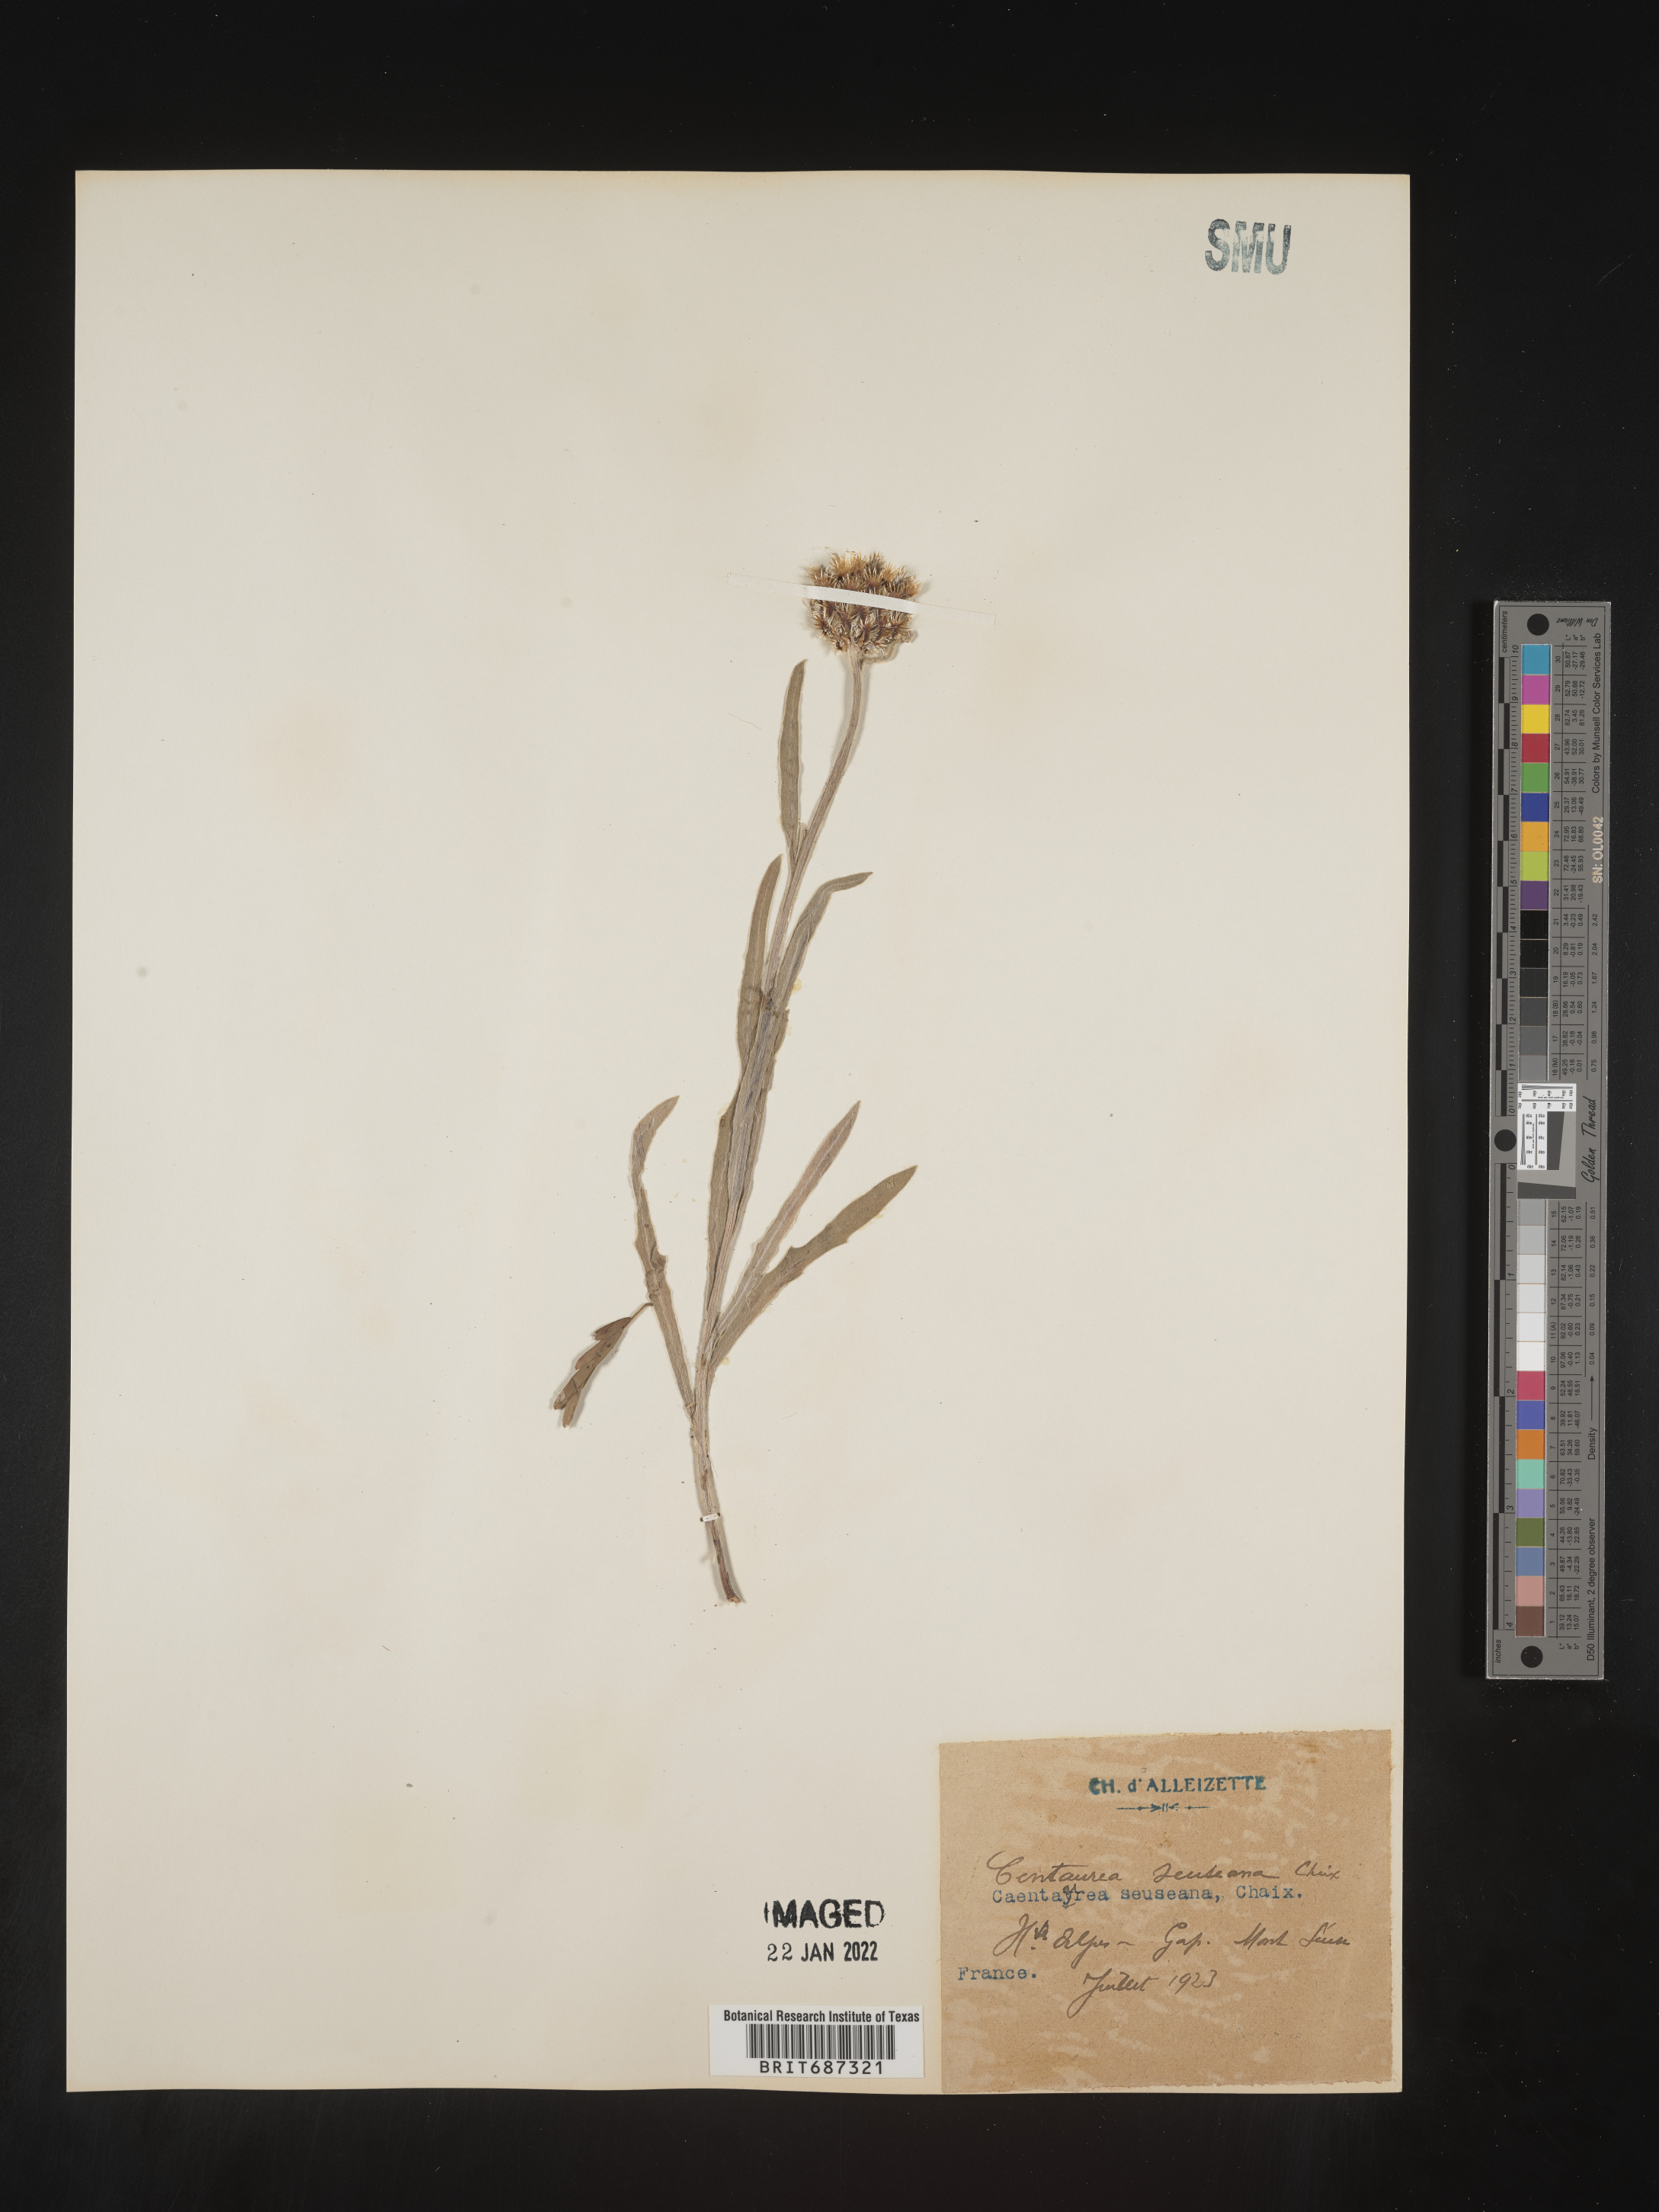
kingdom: Plantae
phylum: Tracheophyta
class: Magnoliopsida
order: Asterales
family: Asteraceae
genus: Centaurea
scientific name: Centaurea
